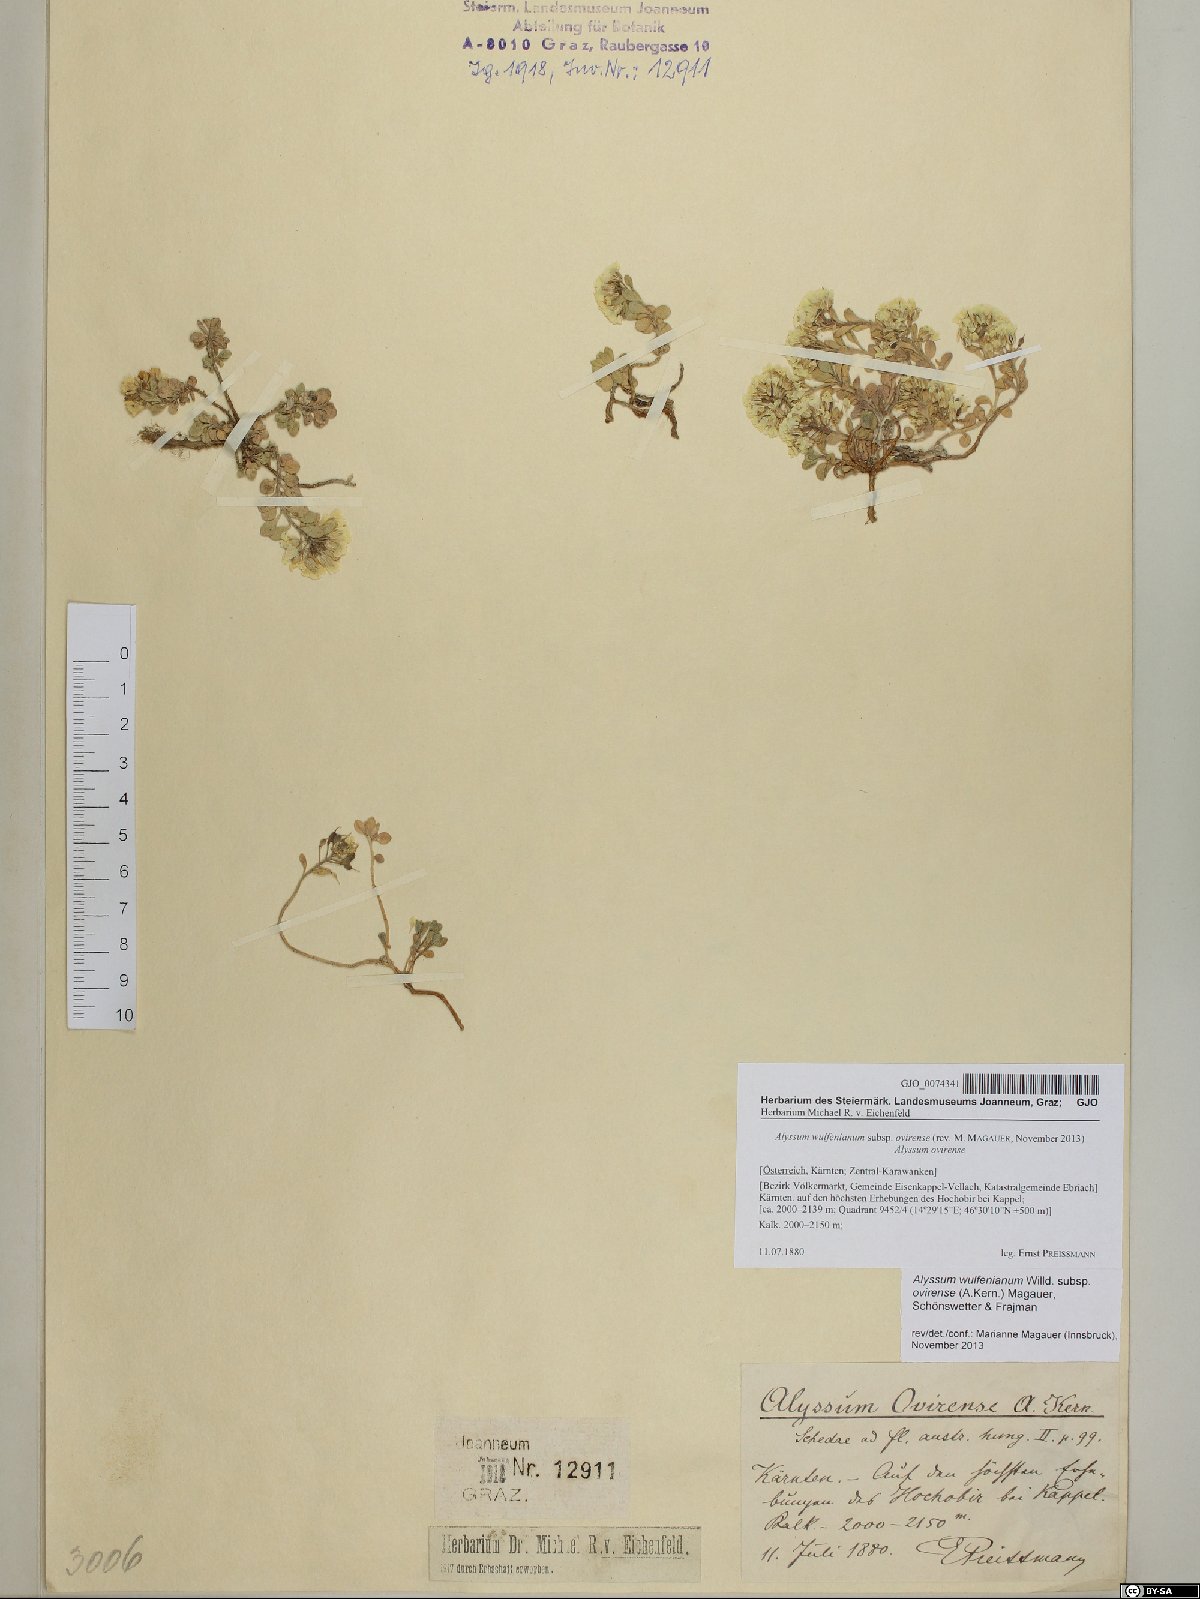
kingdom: Plantae
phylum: Tracheophyta
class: Magnoliopsida
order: Brassicales
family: Brassicaceae
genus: Alyssum
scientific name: Alyssum wulfenianum
